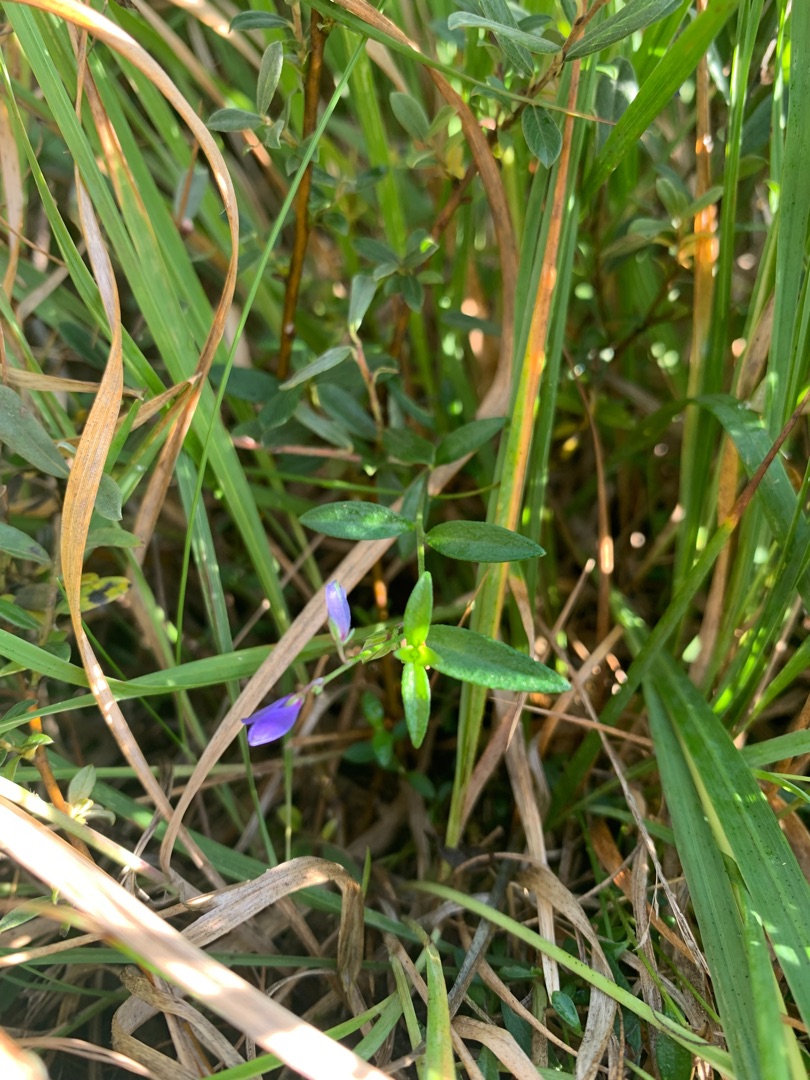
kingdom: Plantae
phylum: Tracheophyta
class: Magnoliopsida
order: Fabales
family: Polygalaceae
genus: Polygala
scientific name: Polygala serpyllifolia
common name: Spæd mælkeurt
